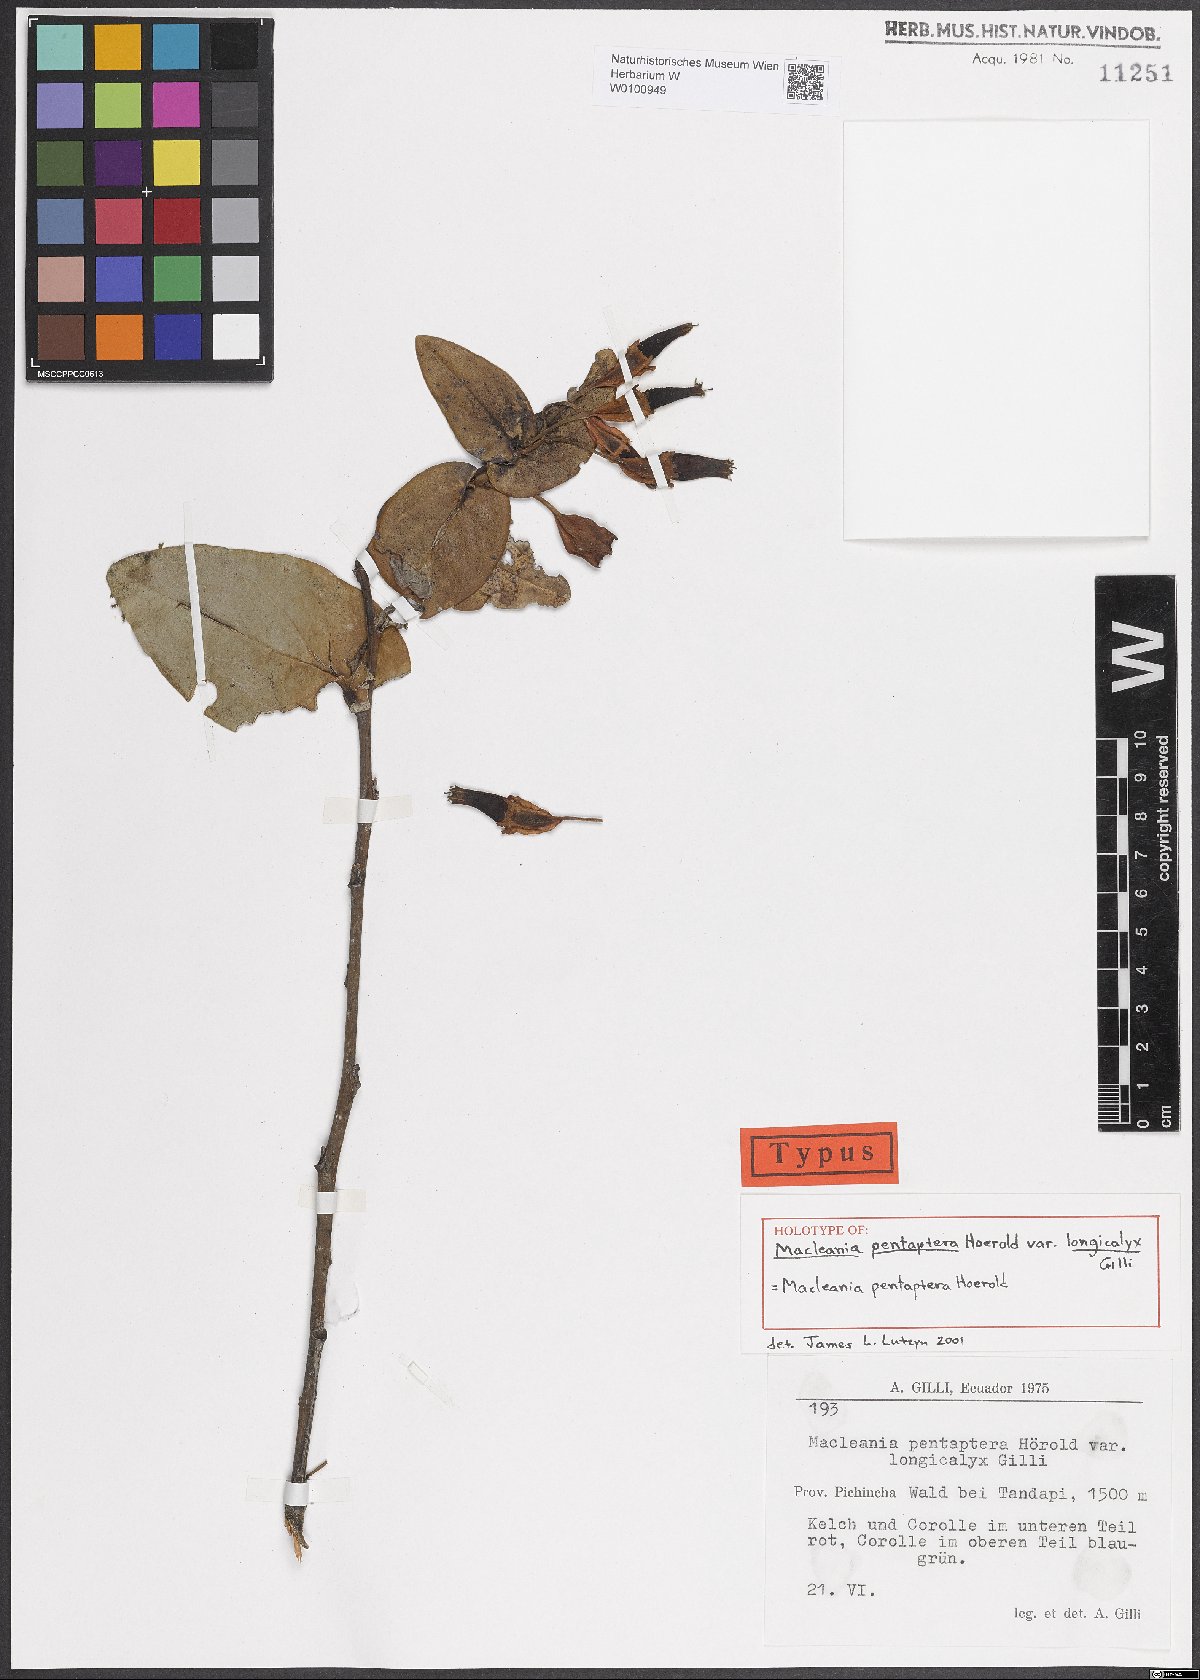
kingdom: Plantae
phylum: Tracheophyta
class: Magnoliopsida
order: Ericales
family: Ericaceae
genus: Macleania
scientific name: Macleania pentaptera
